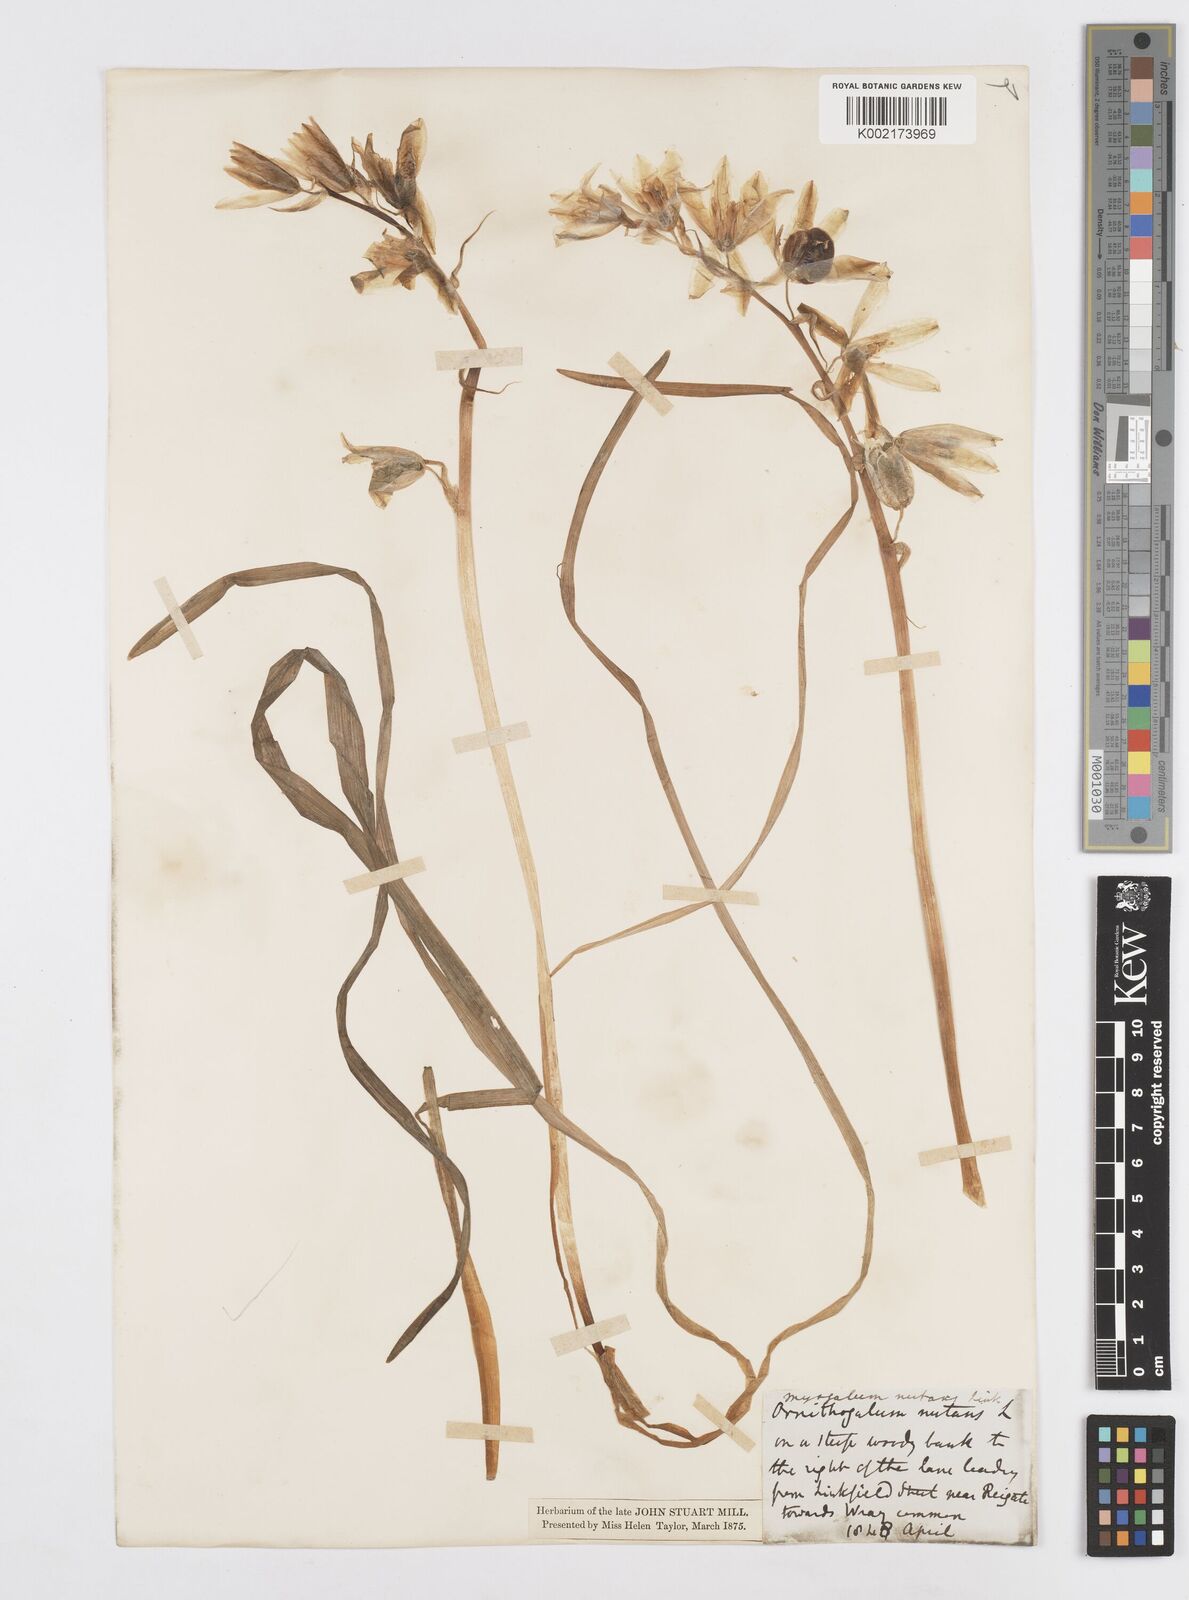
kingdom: Plantae
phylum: Tracheophyta
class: Liliopsida
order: Asparagales
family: Asparagaceae
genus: Ornithogalum
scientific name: Ornithogalum nutans
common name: Drooping star-of-bethlehem
